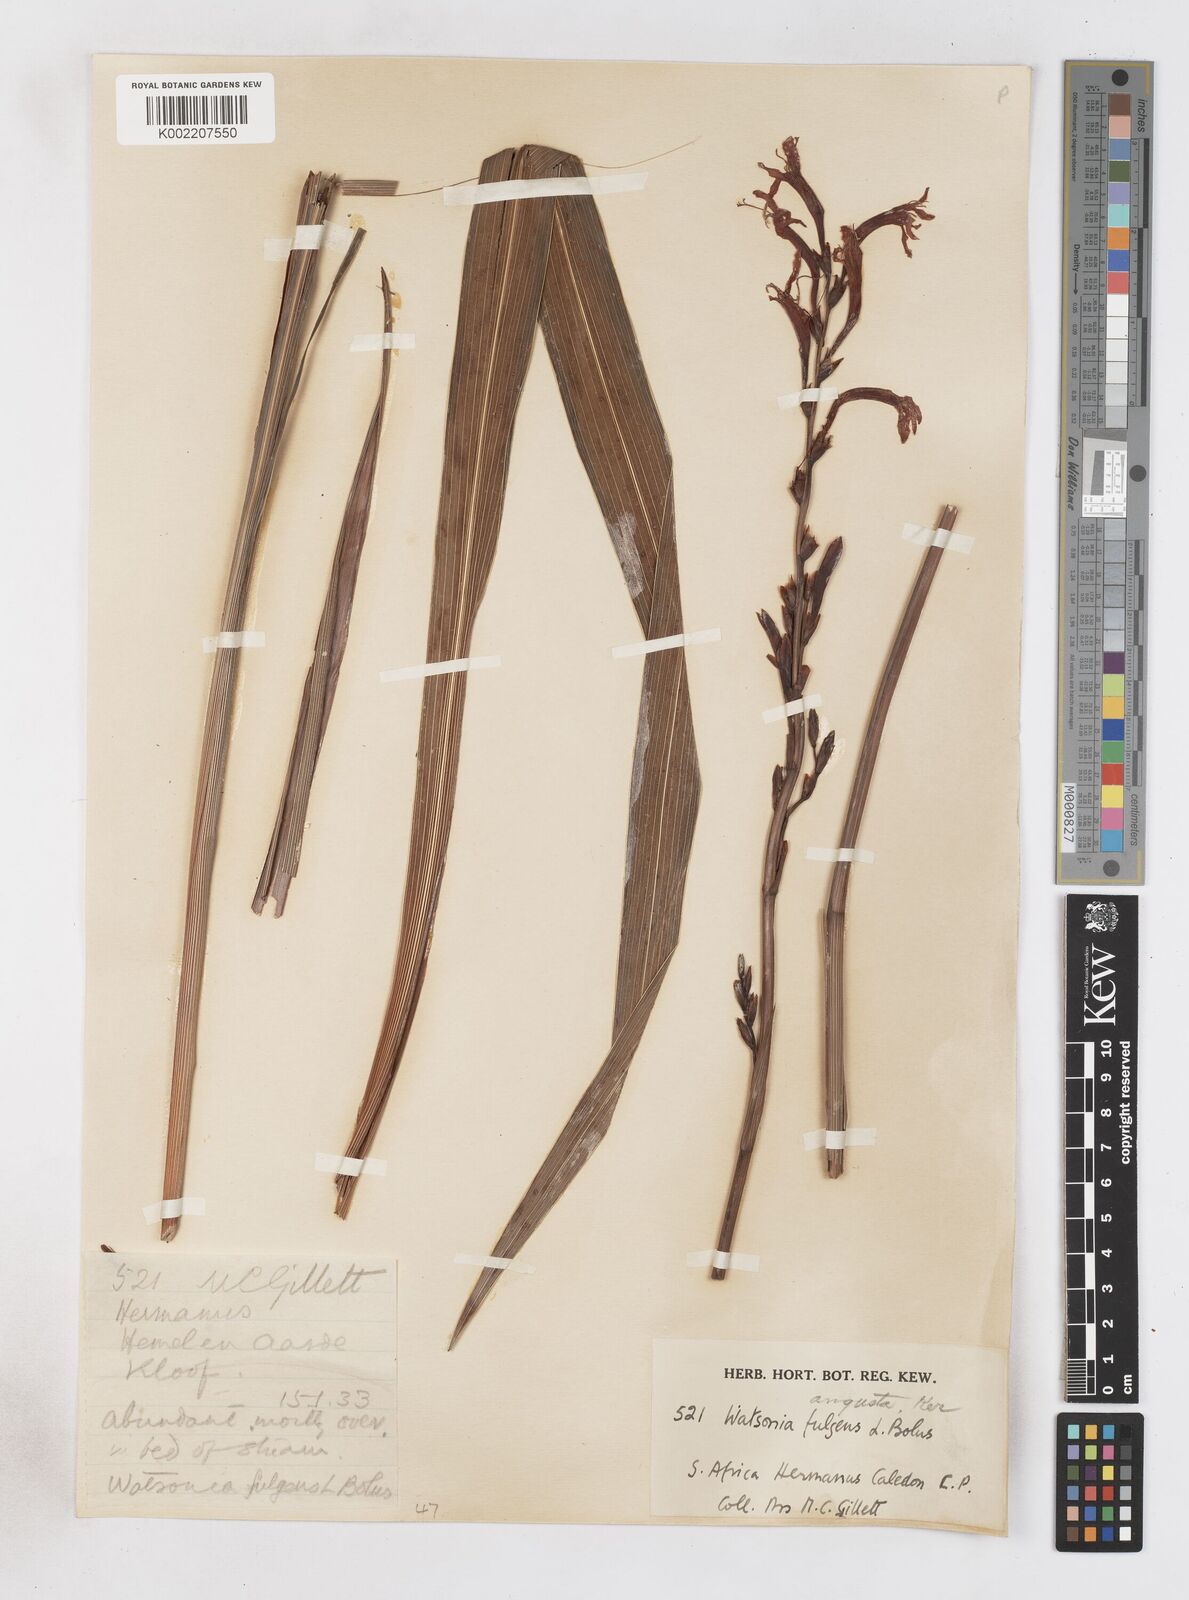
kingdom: Plantae
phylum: Tracheophyta
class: Liliopsida
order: Asparagales
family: Iridaceae
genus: Watsonia
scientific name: Watsonia angusta
